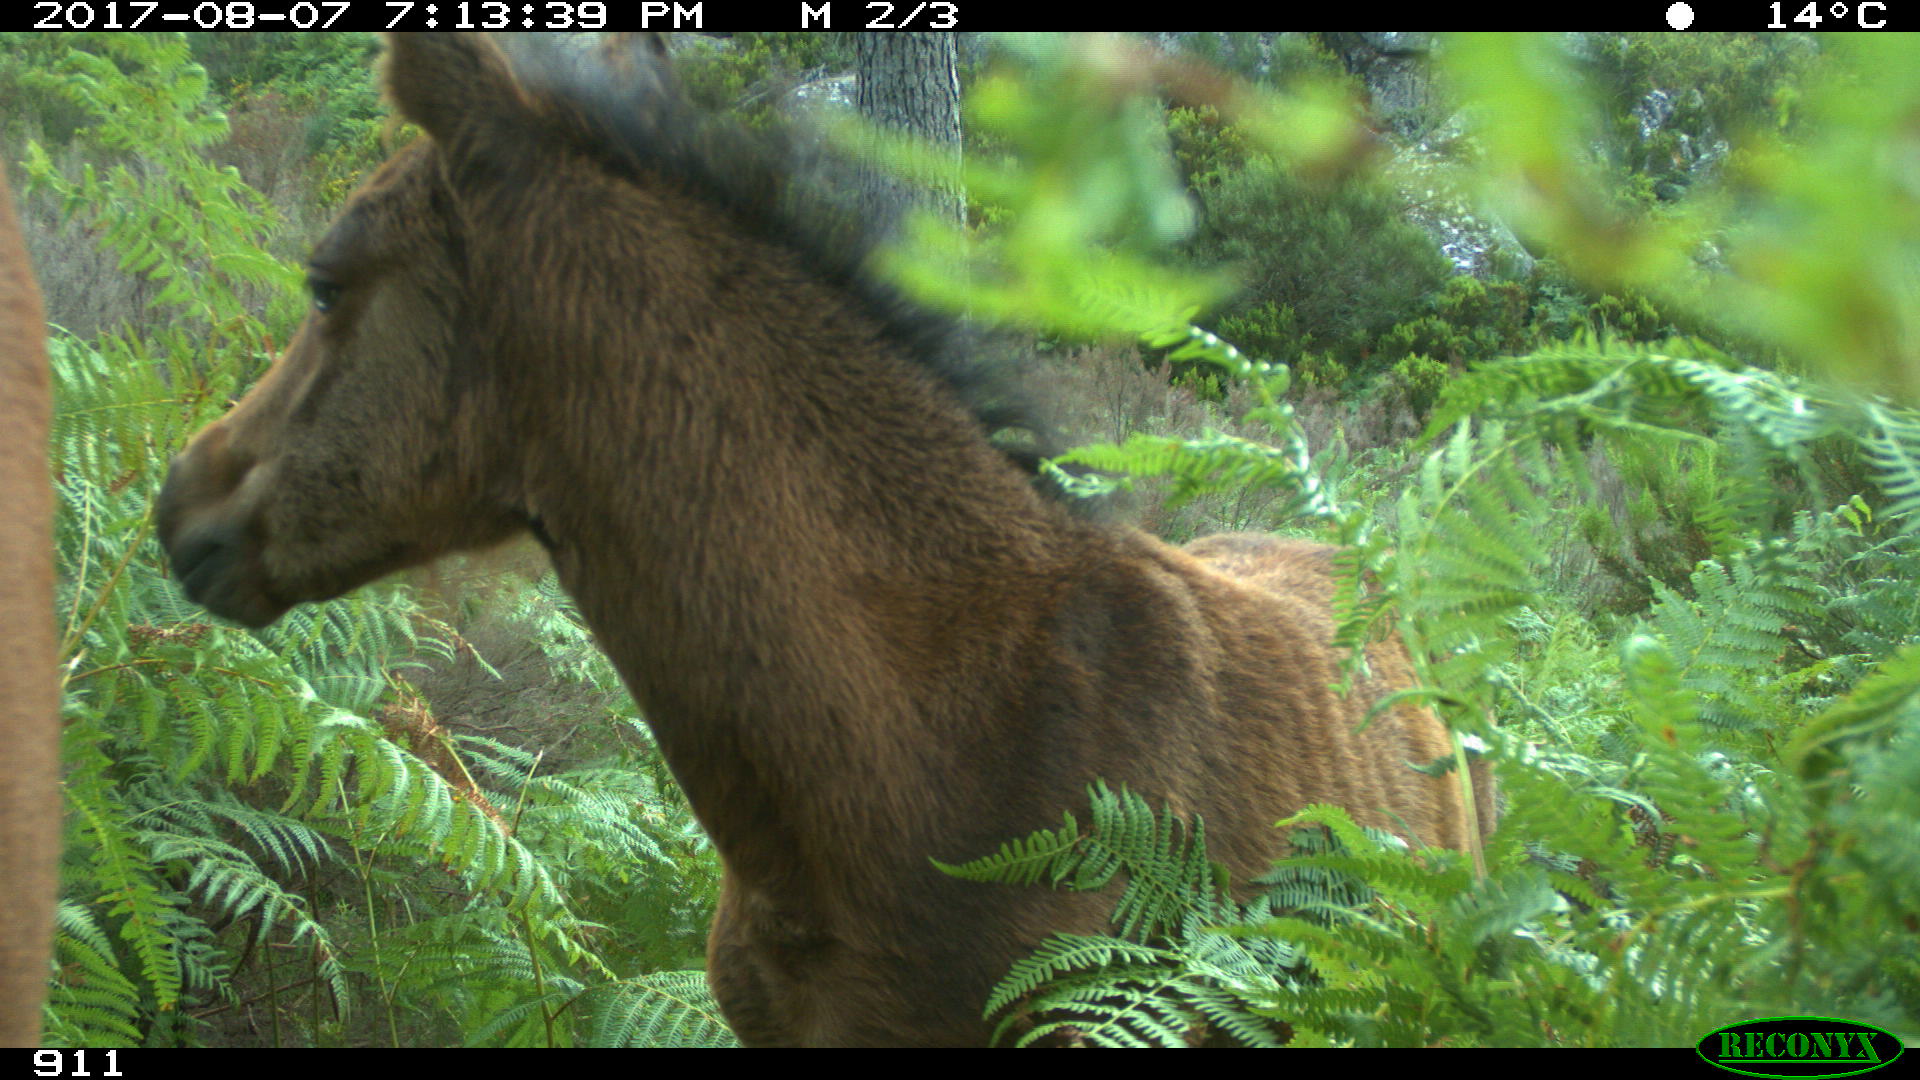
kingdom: Animalia
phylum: Chordata
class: Mammalia
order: Perissodactyla
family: Equidae
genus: Equus
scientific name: Equus caballus
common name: Horse
